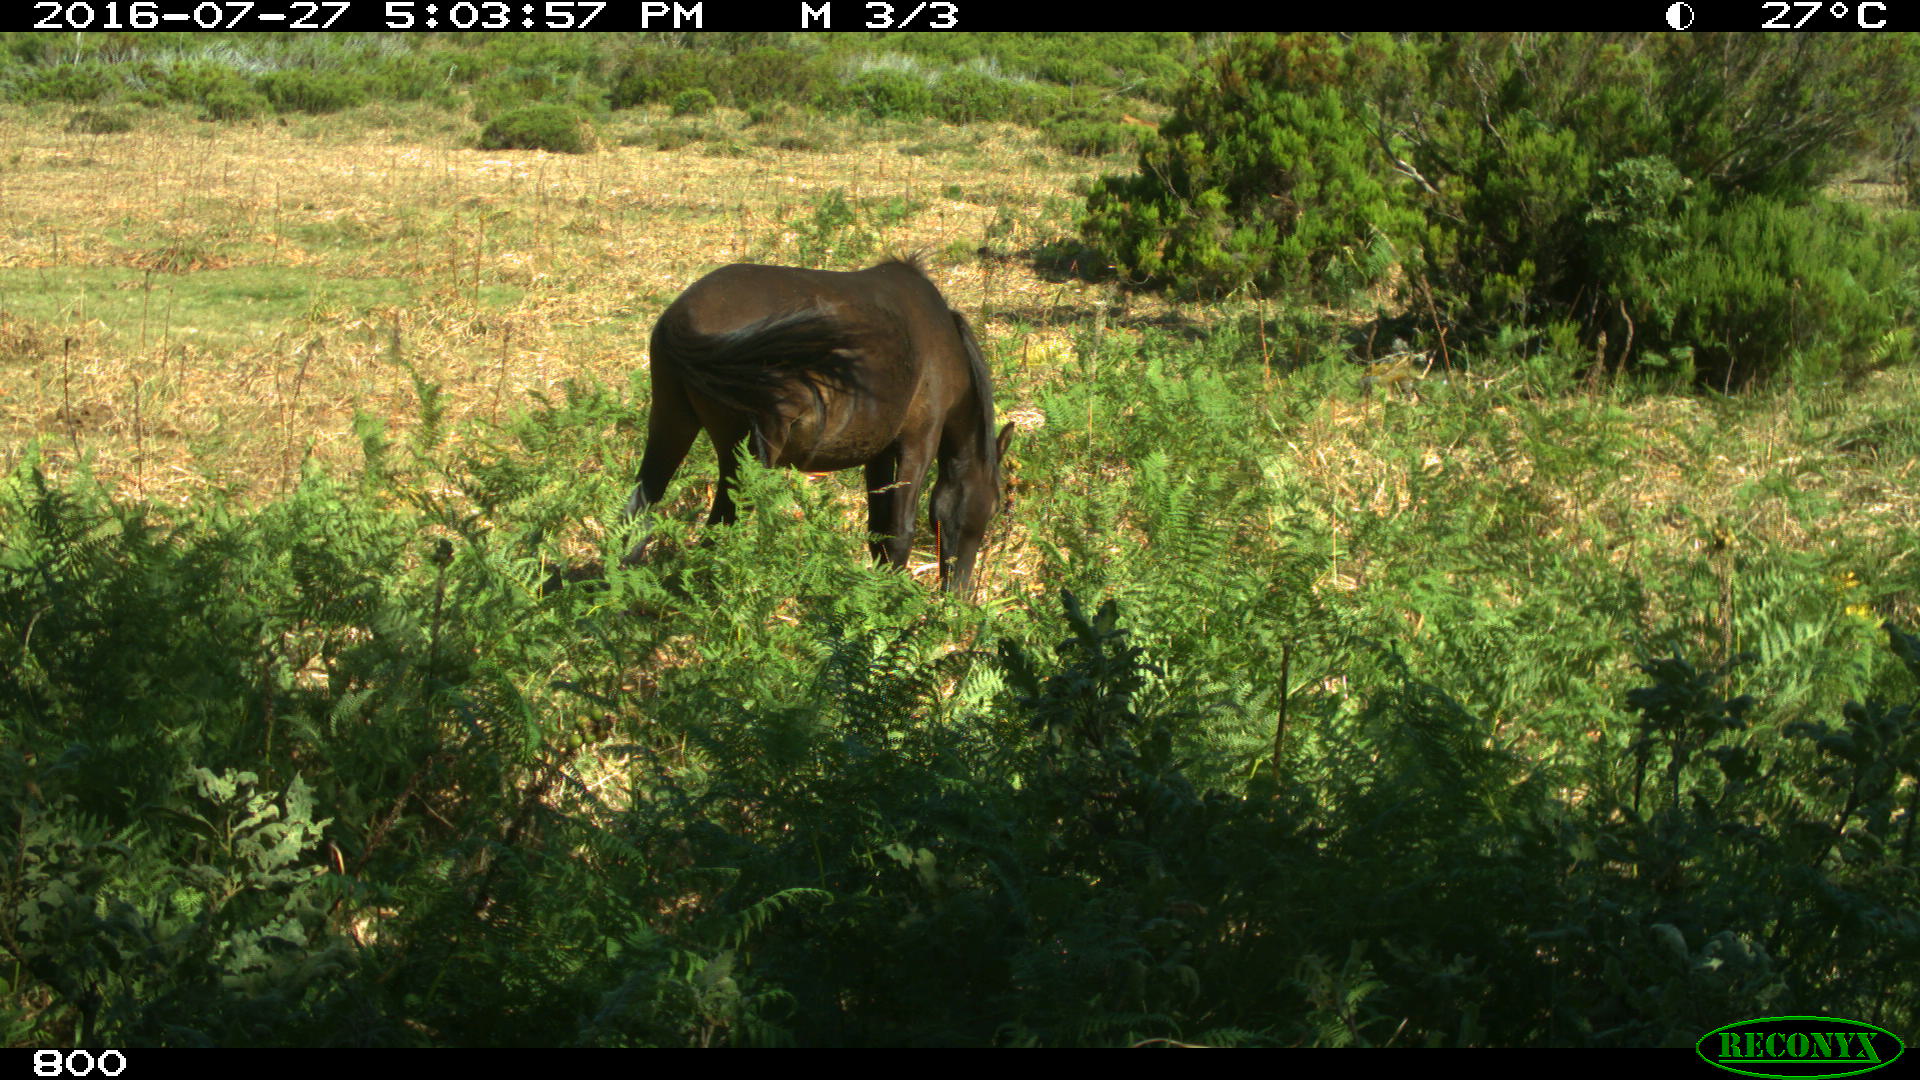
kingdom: Animalia
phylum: Chordata
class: Mammalia
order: Perissodactyla
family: Equidae
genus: Equus
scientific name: Equus caballus
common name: Horse
